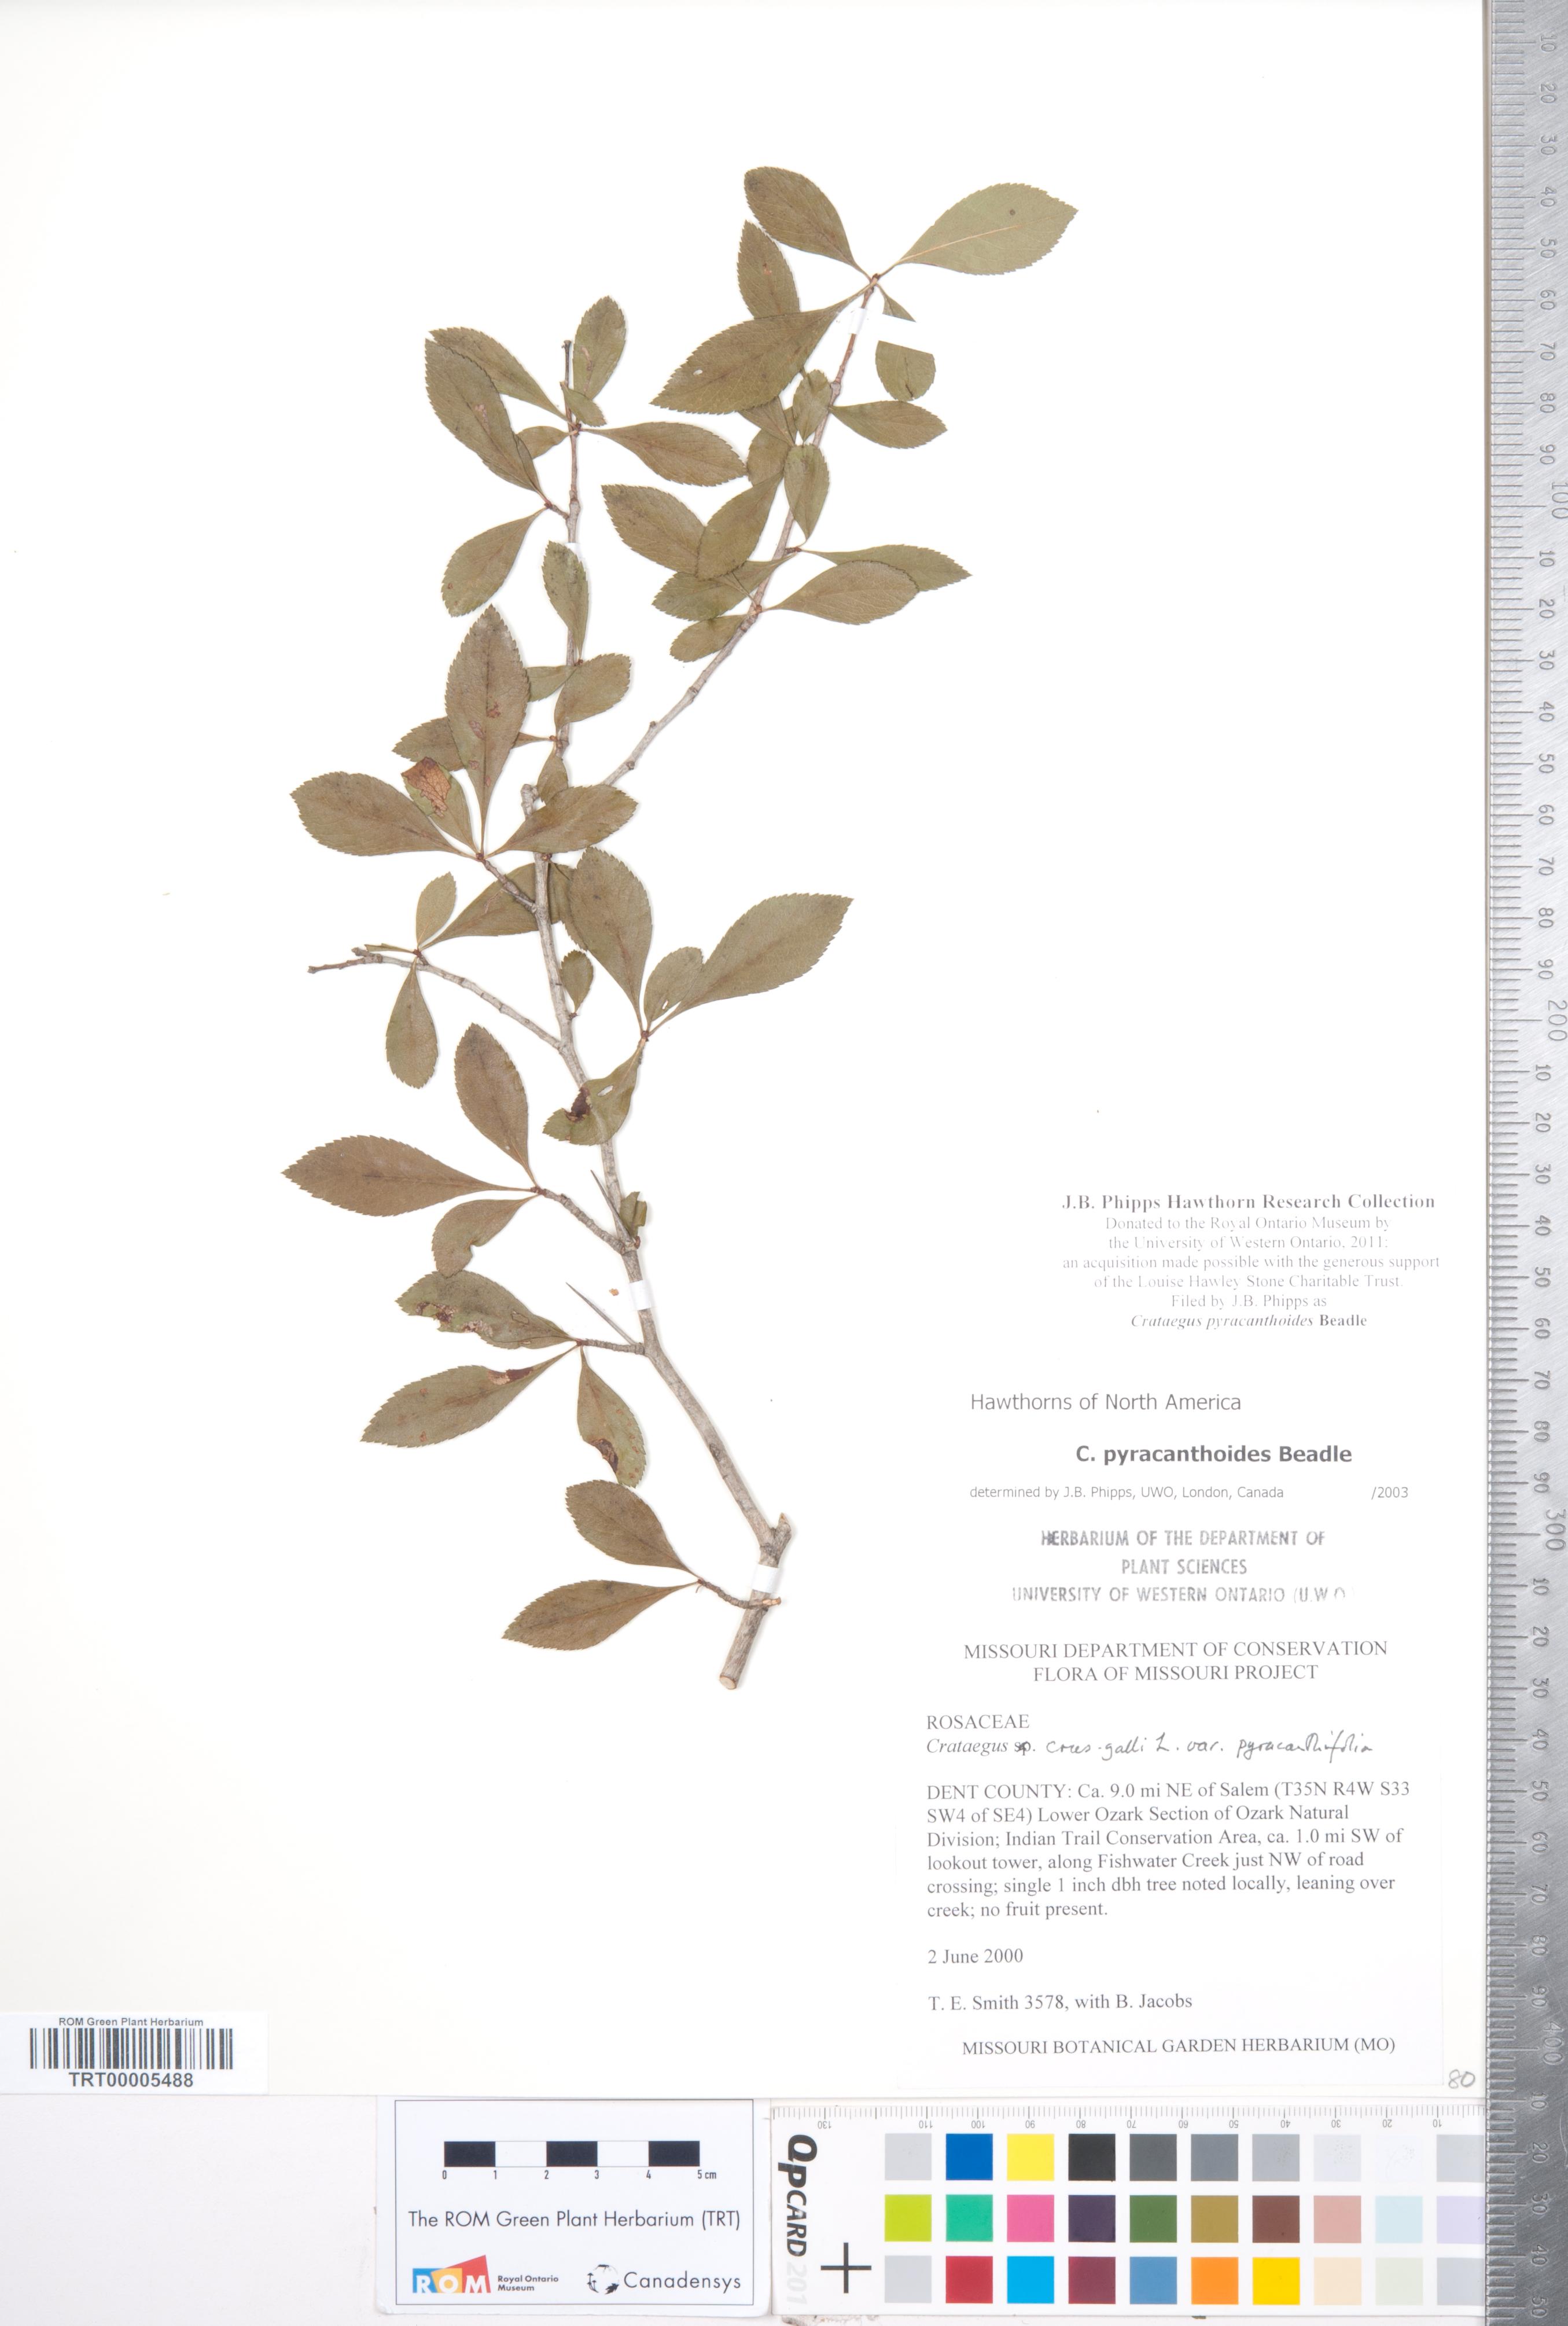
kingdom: Plantae
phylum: Tracheophyta
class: Magnoliopsida
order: Rosales
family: Rosaceae
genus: Crataegus
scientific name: Crataegus crus-galli
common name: Cockspurthorn
